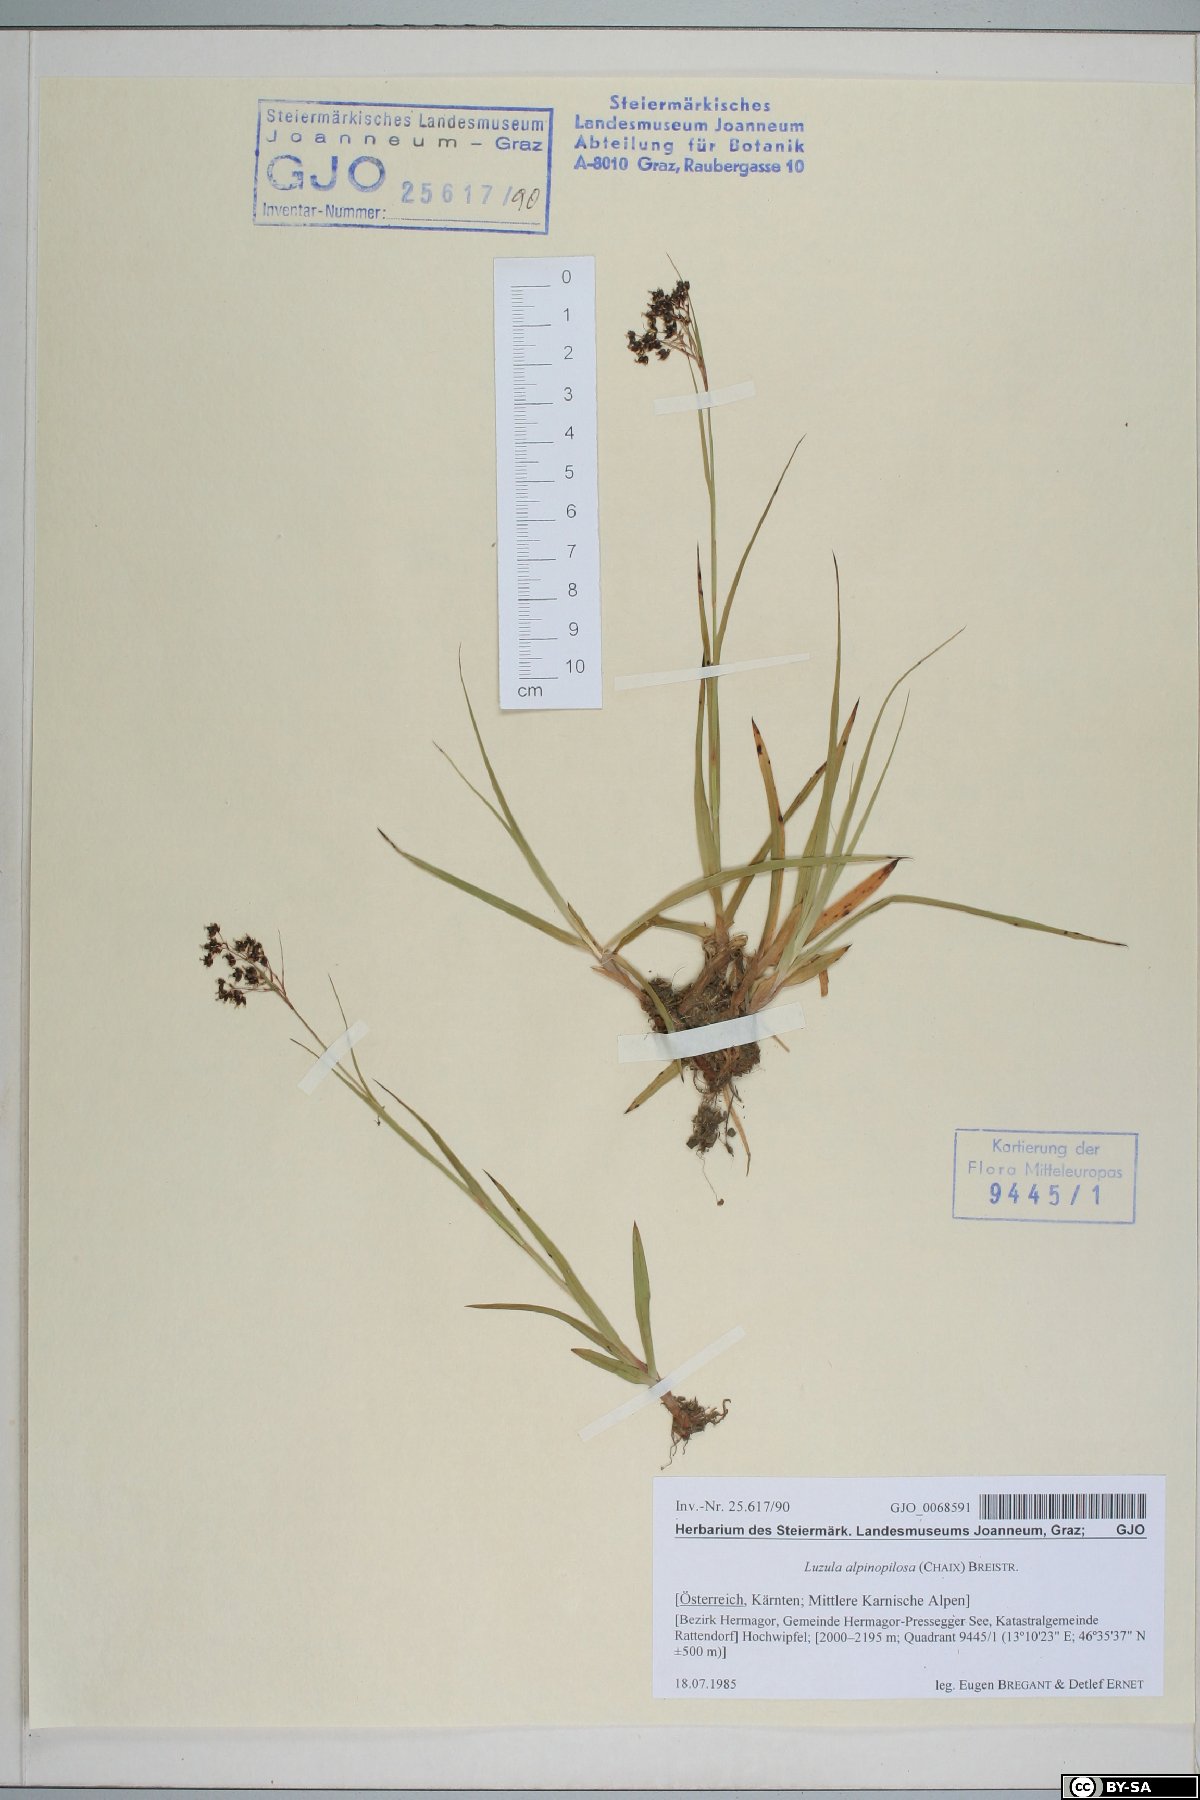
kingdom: Plantae
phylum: Tracheophyta
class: Liliopsida
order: Poales
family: Juncaceae
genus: Luzula
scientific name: Luzula alpinopilosa
